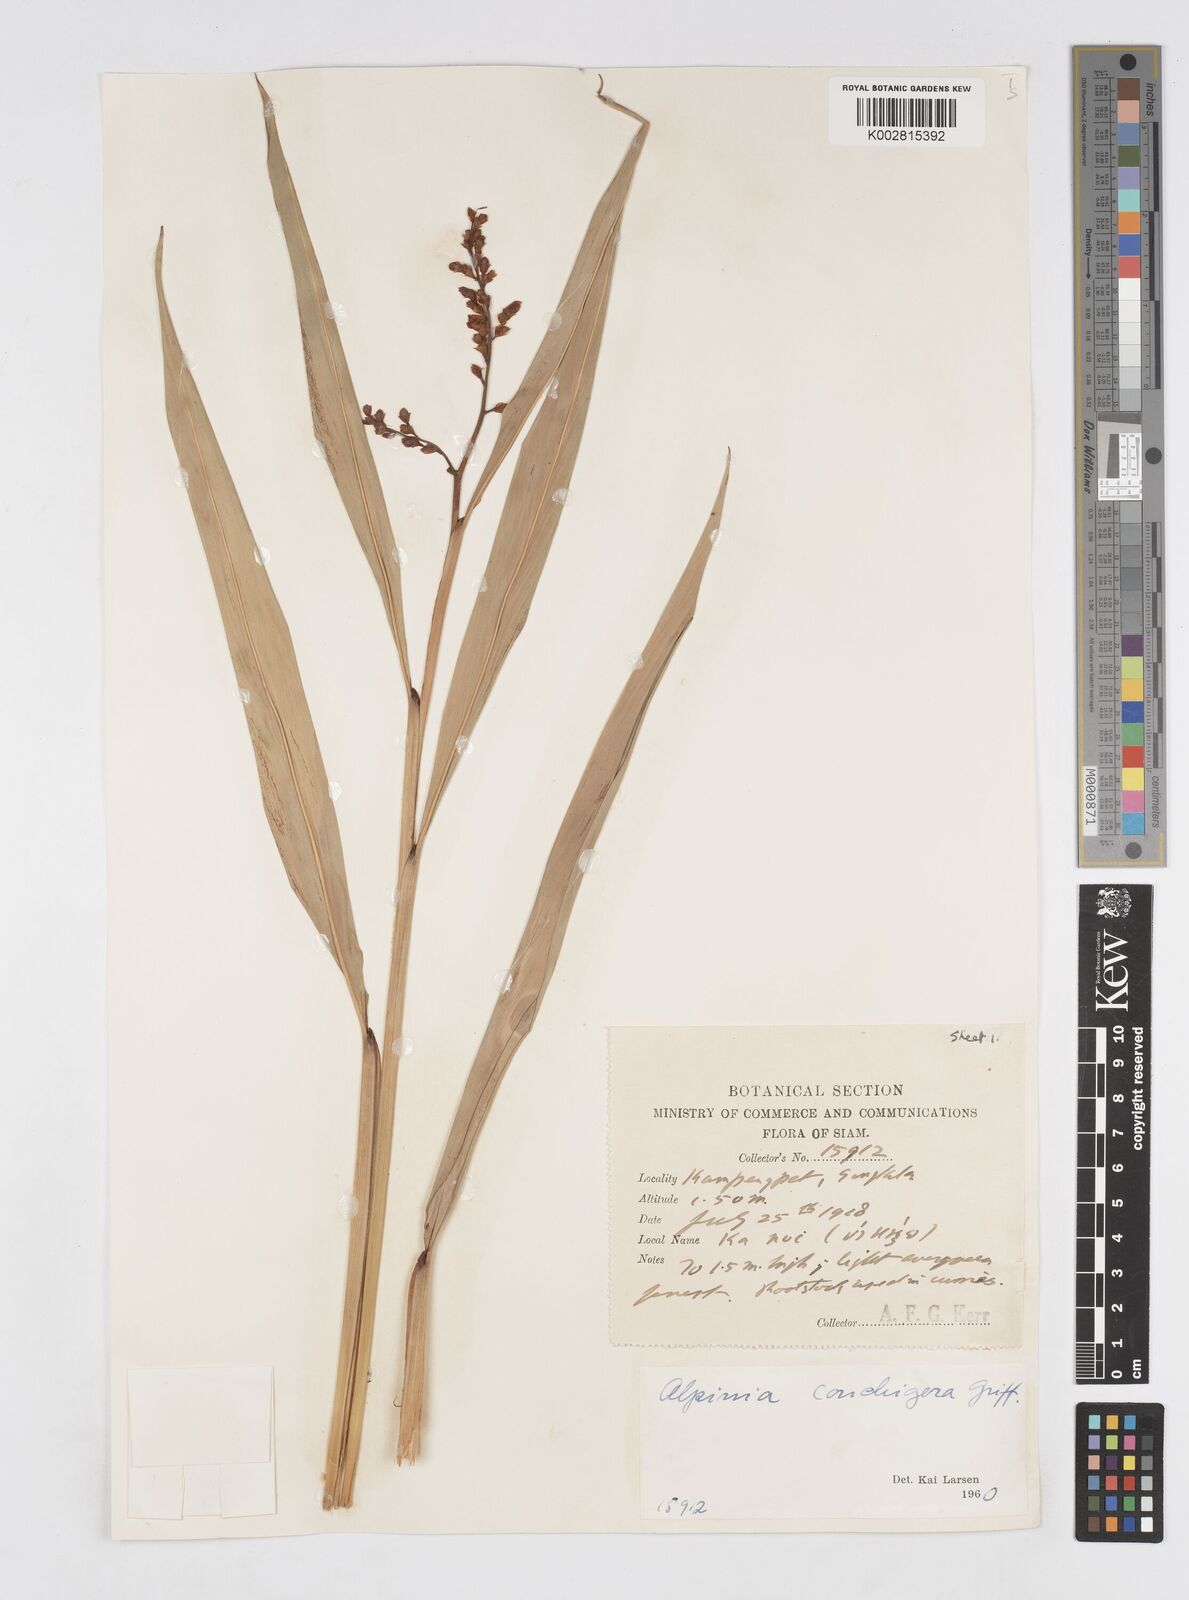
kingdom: Plantae
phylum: Tracheophyta
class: Liliopsida
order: Zingiberales
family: Zingiberaceae
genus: Alpinia
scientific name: Alpinia conchigera
